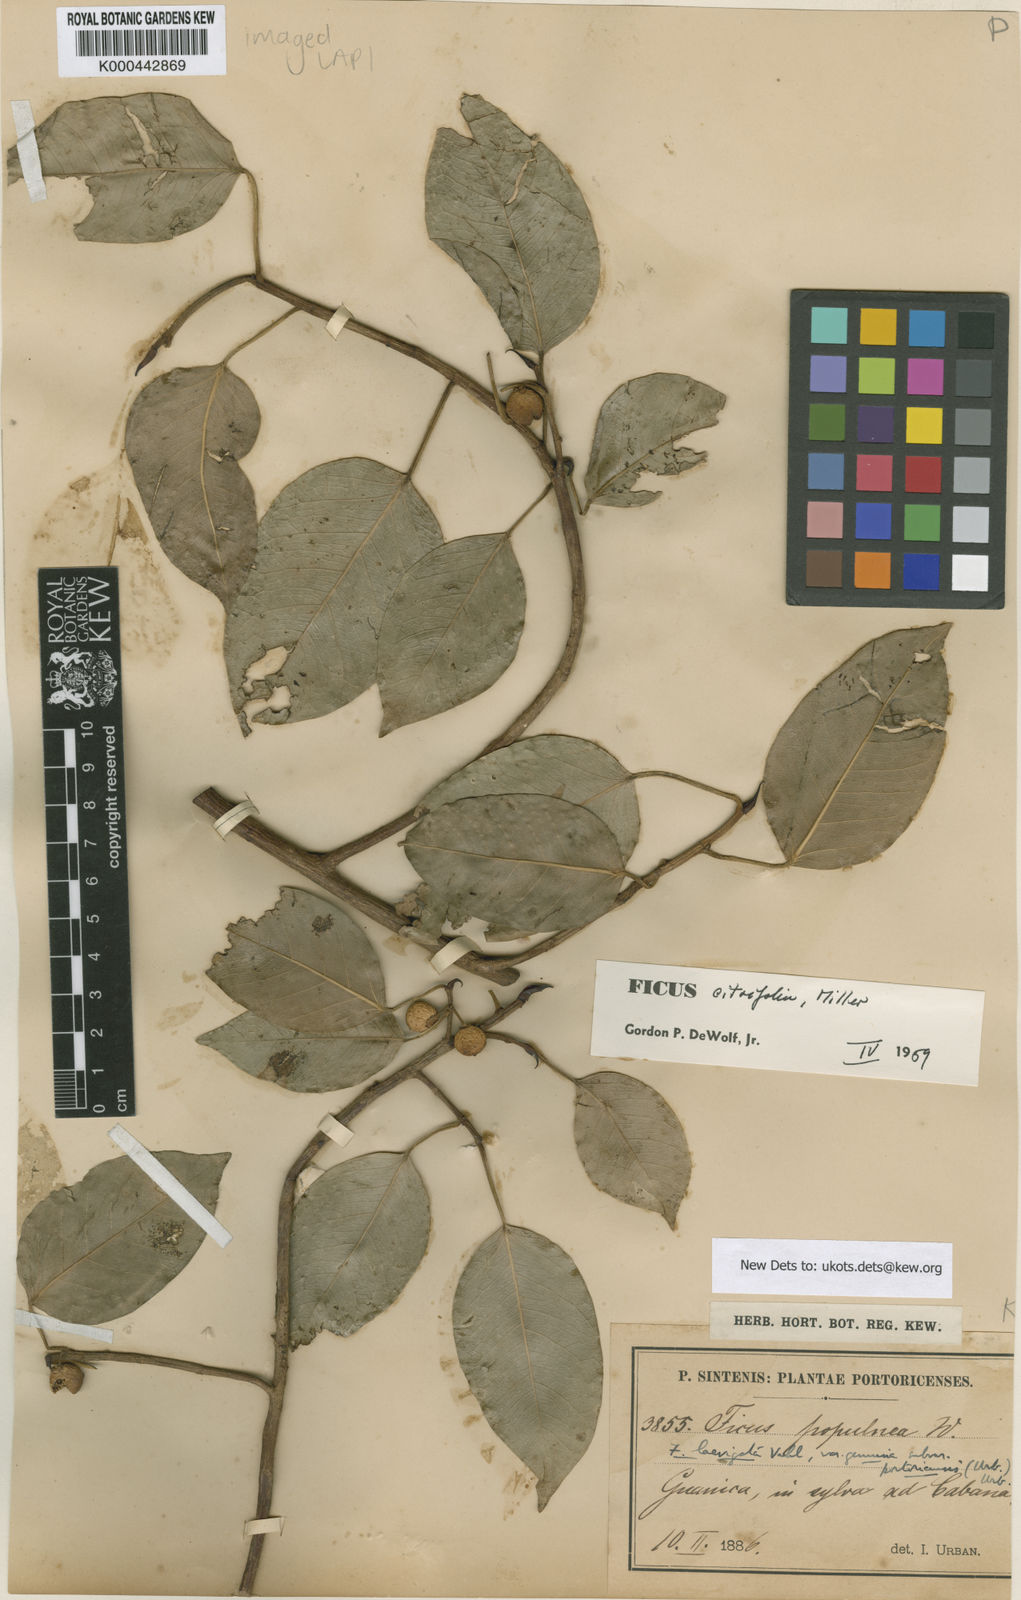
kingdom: Plantae
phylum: Tracheophyta
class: Magnoliopsida
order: Rosales
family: Moraceae
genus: Ficus
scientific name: Ficus citrifolia
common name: Strangler fig
